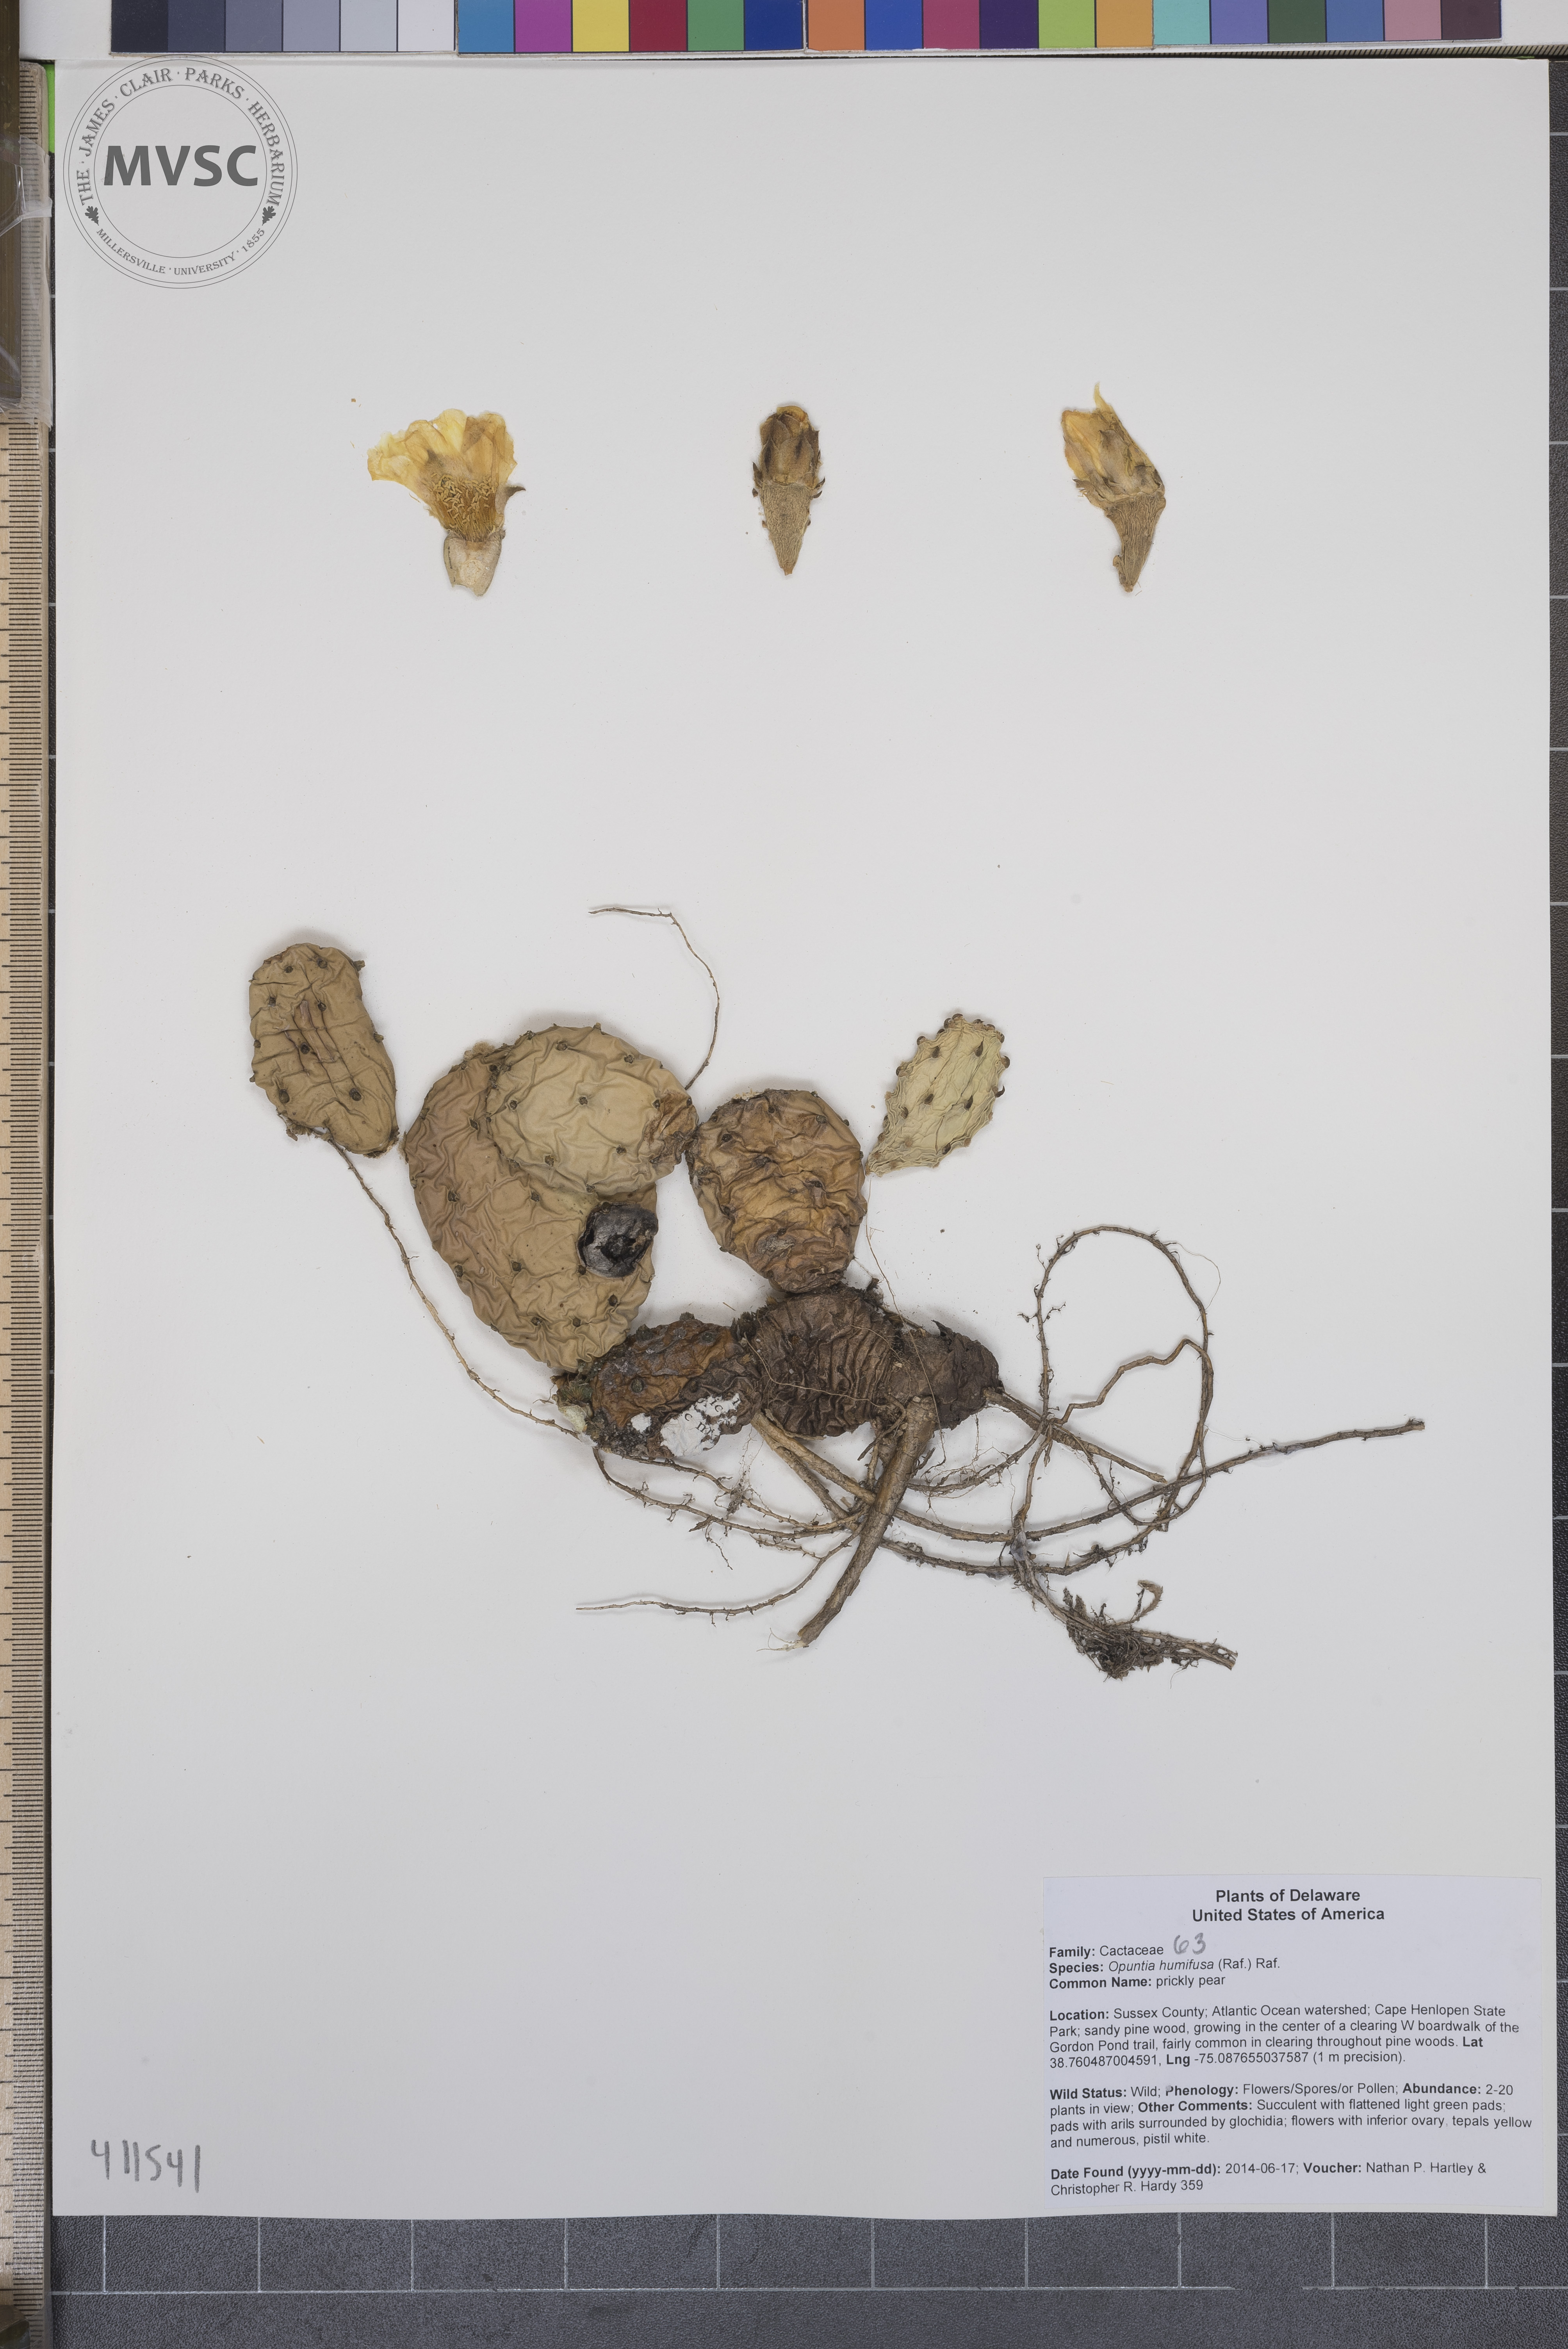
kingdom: Plantae
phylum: Tracheophyta
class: Magnoliopsida
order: Caryophyllales
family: Cactaceae
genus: Opuntia
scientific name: Opuntia humifusa
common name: prickly pear
